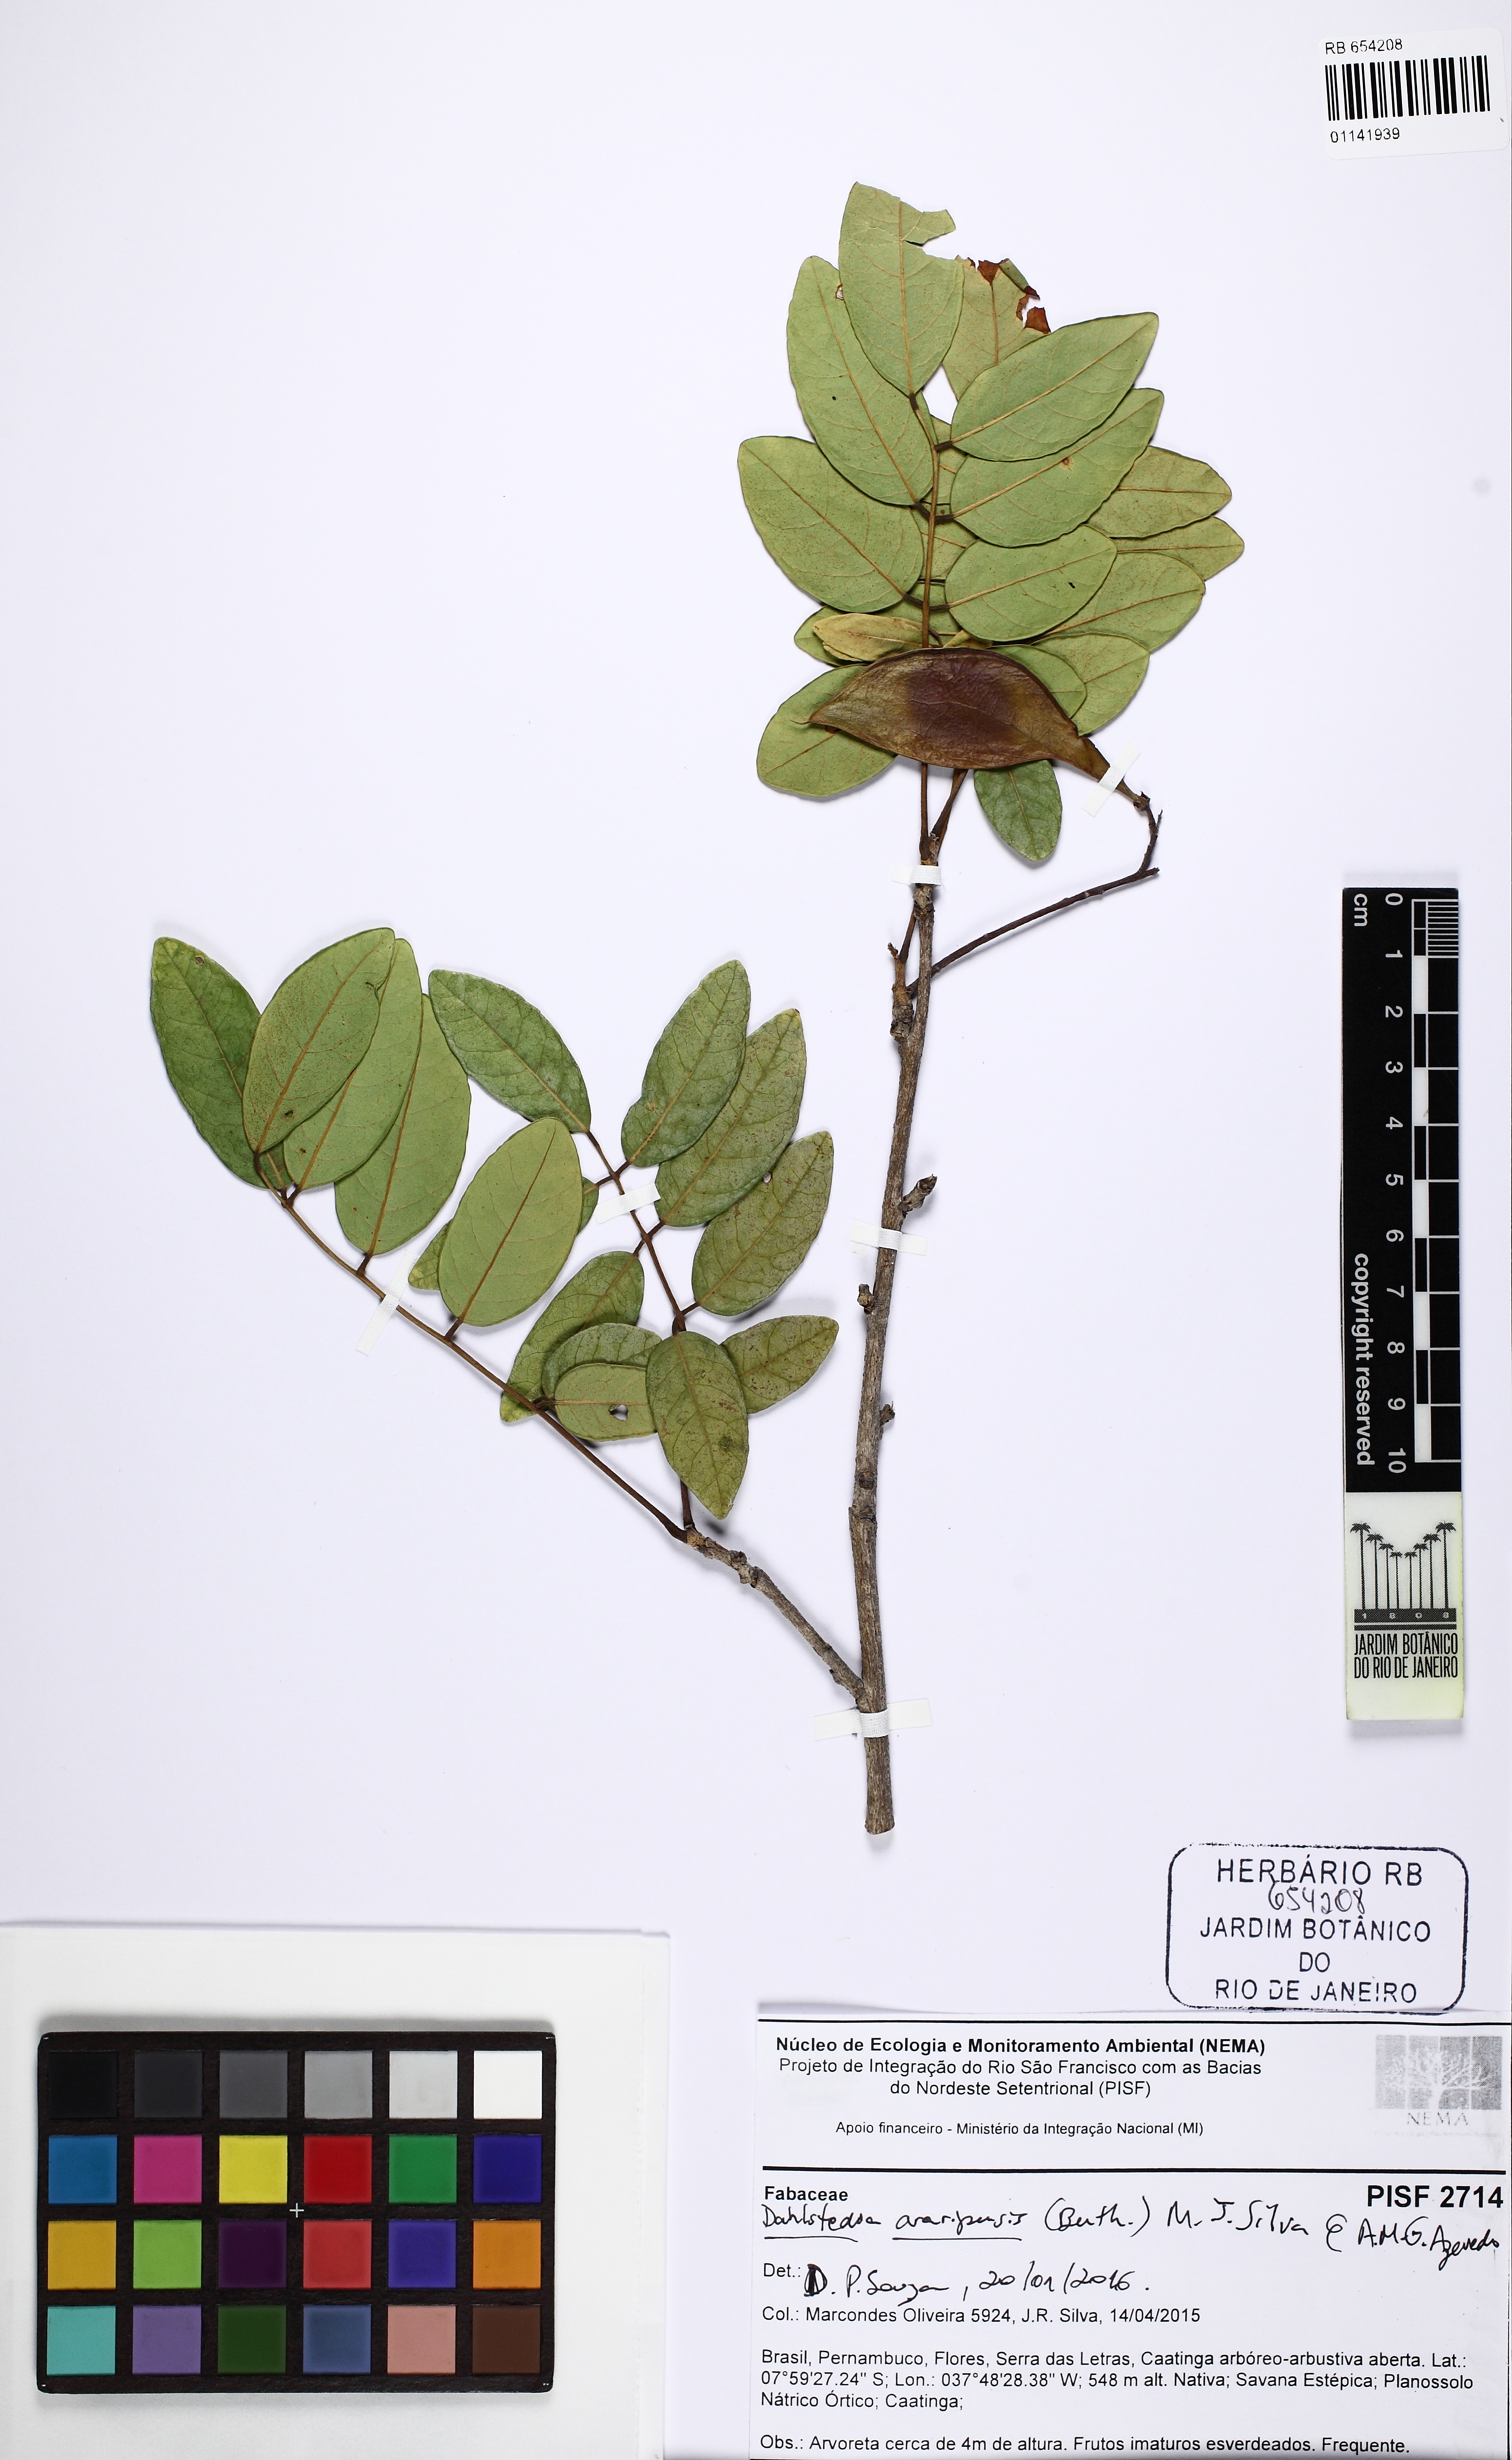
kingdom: Plantae
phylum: Tracheophyta
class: Magnoliopsida
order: Fabales
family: Fabaceae
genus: Dahlstedtia
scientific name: Dahlstedtia araripensis
